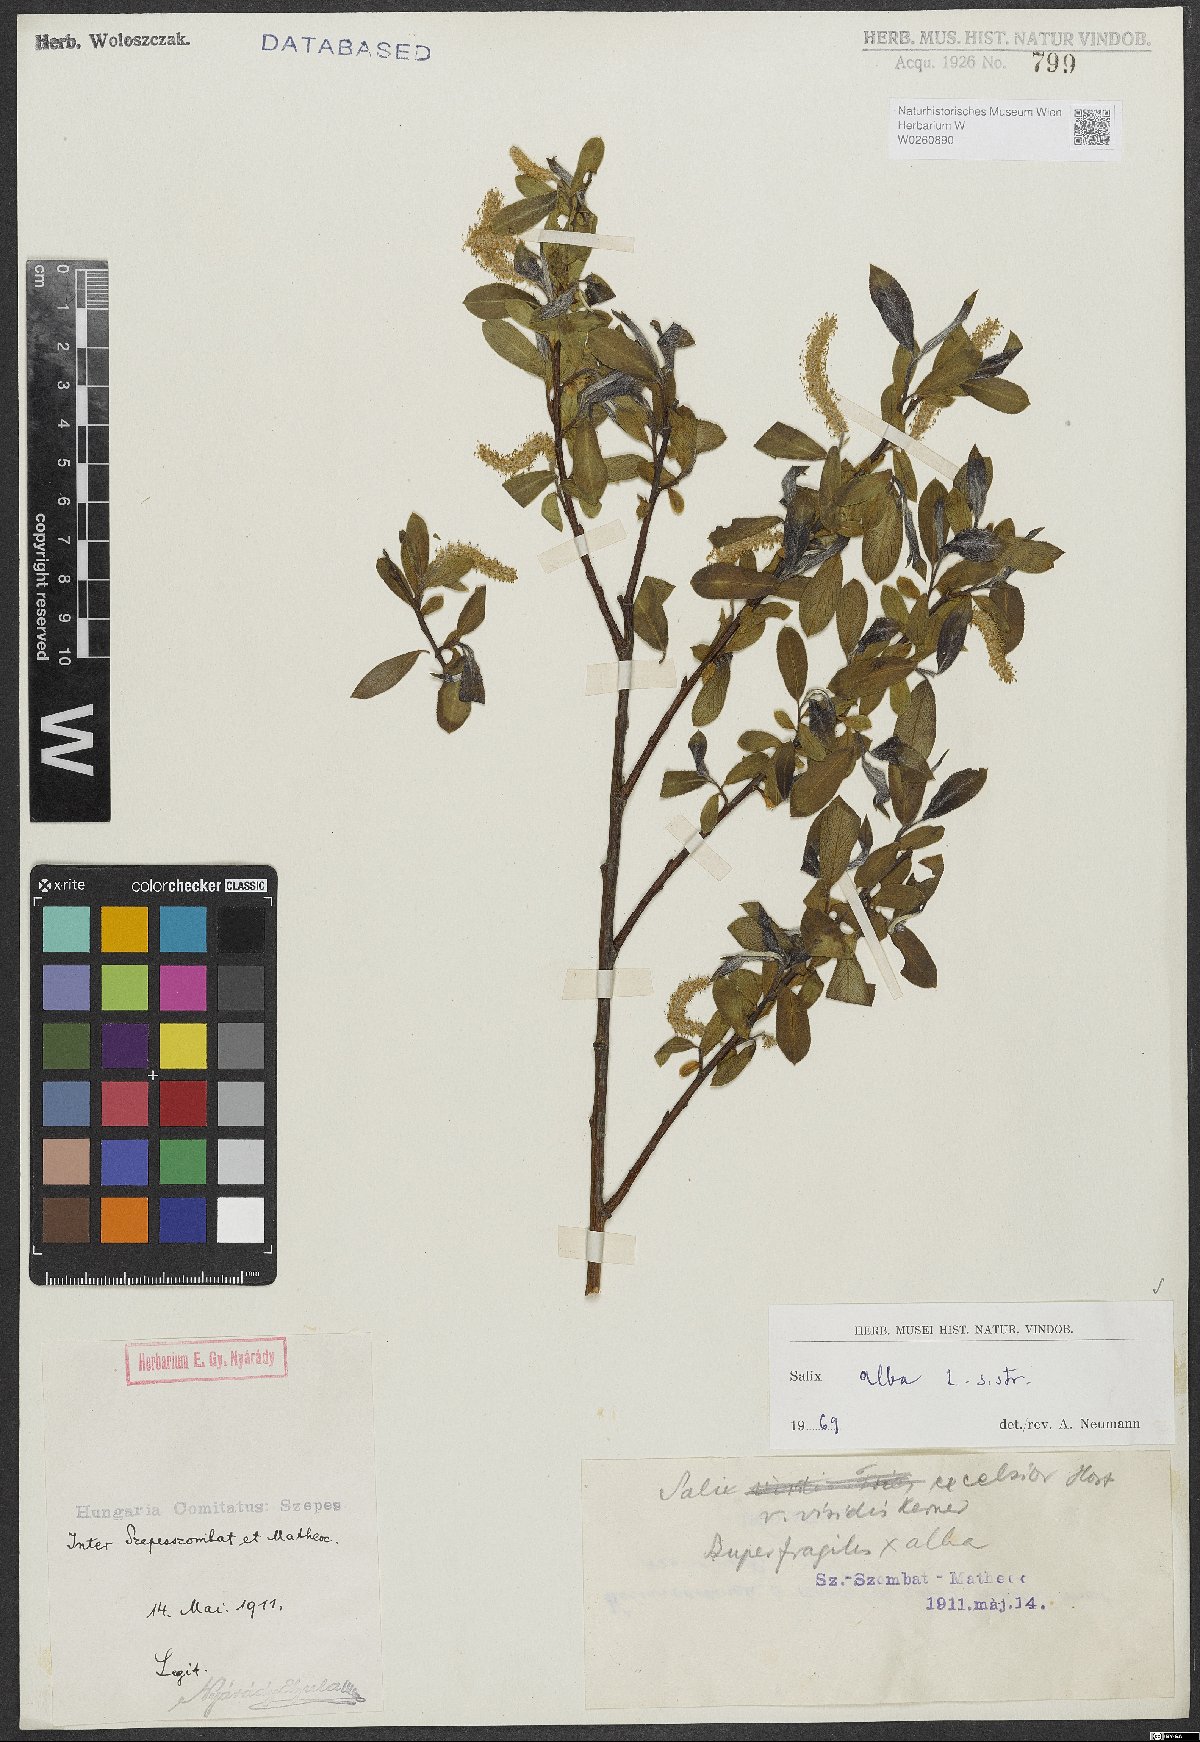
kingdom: Plantae
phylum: Tracheophyta
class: Magnoliopsida
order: Malpighiales
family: Salicaceae
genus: Salix
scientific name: Salix alba
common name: White willow
